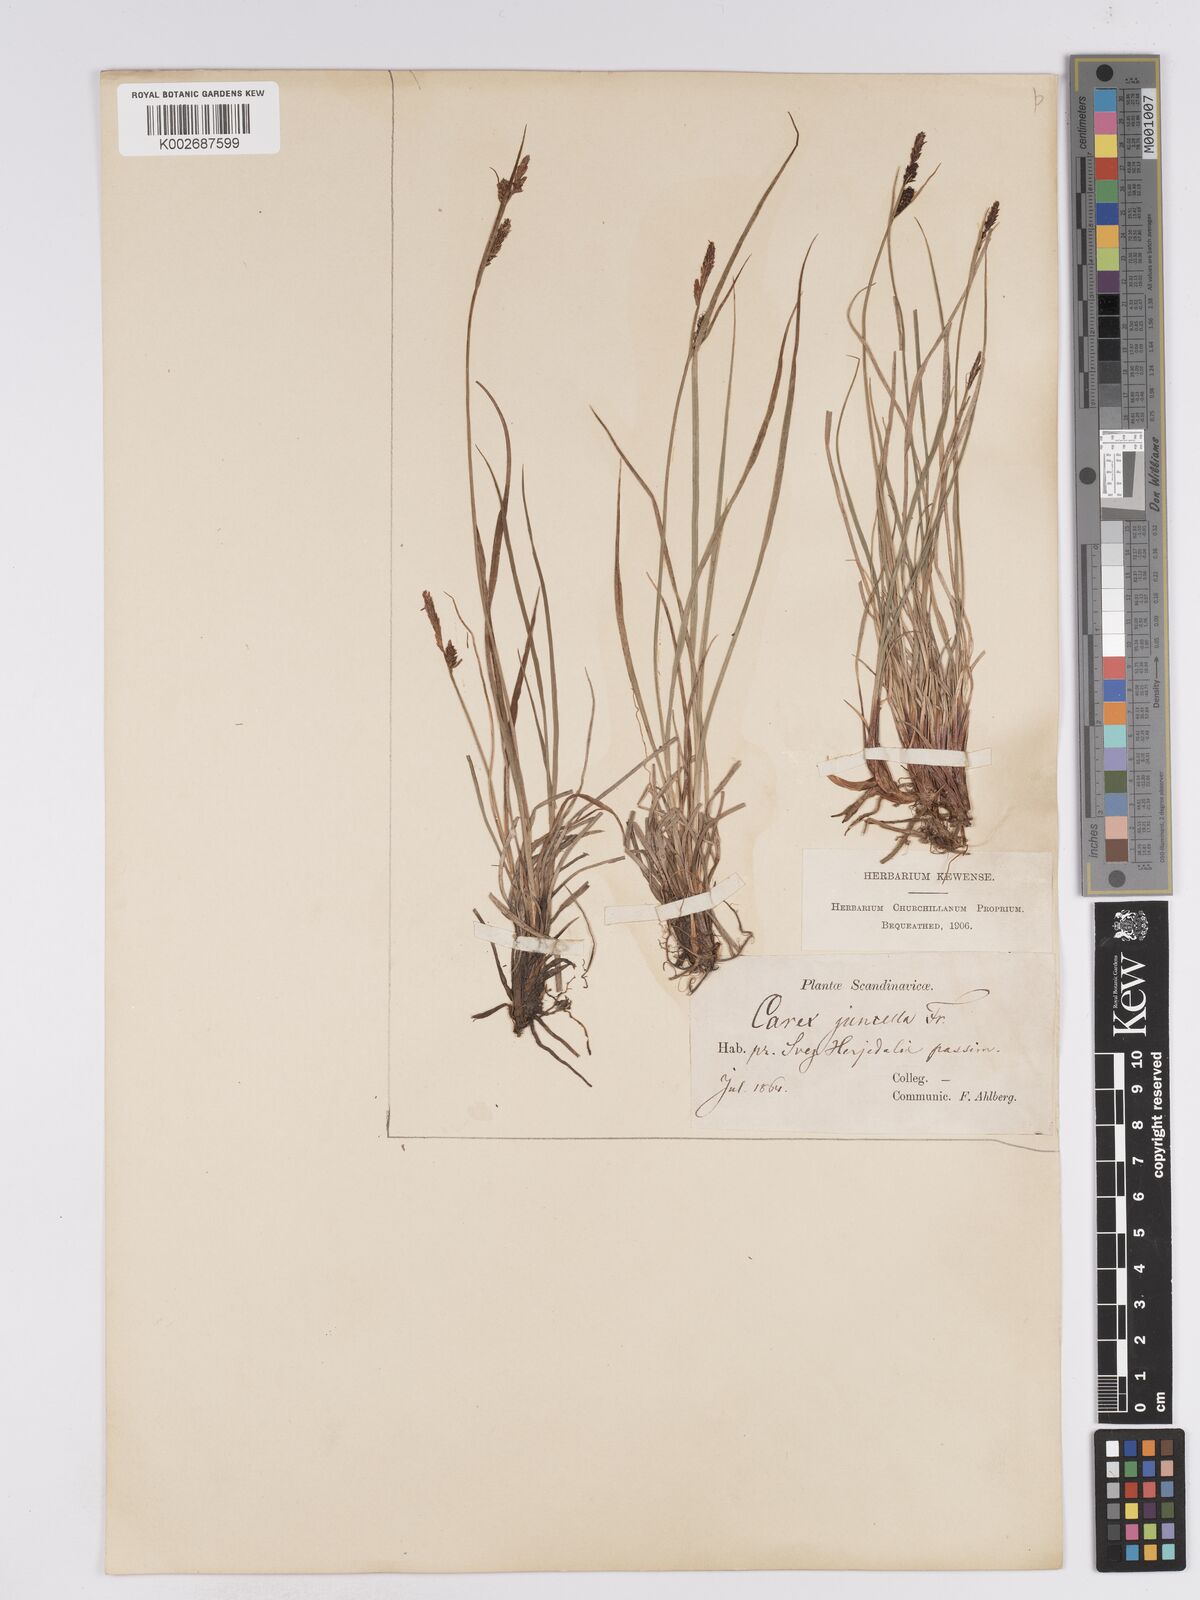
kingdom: Plantae
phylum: Tracheophyta
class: Liliopsida
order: Poales
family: Cyperaceae
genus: Carex
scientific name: Carex
